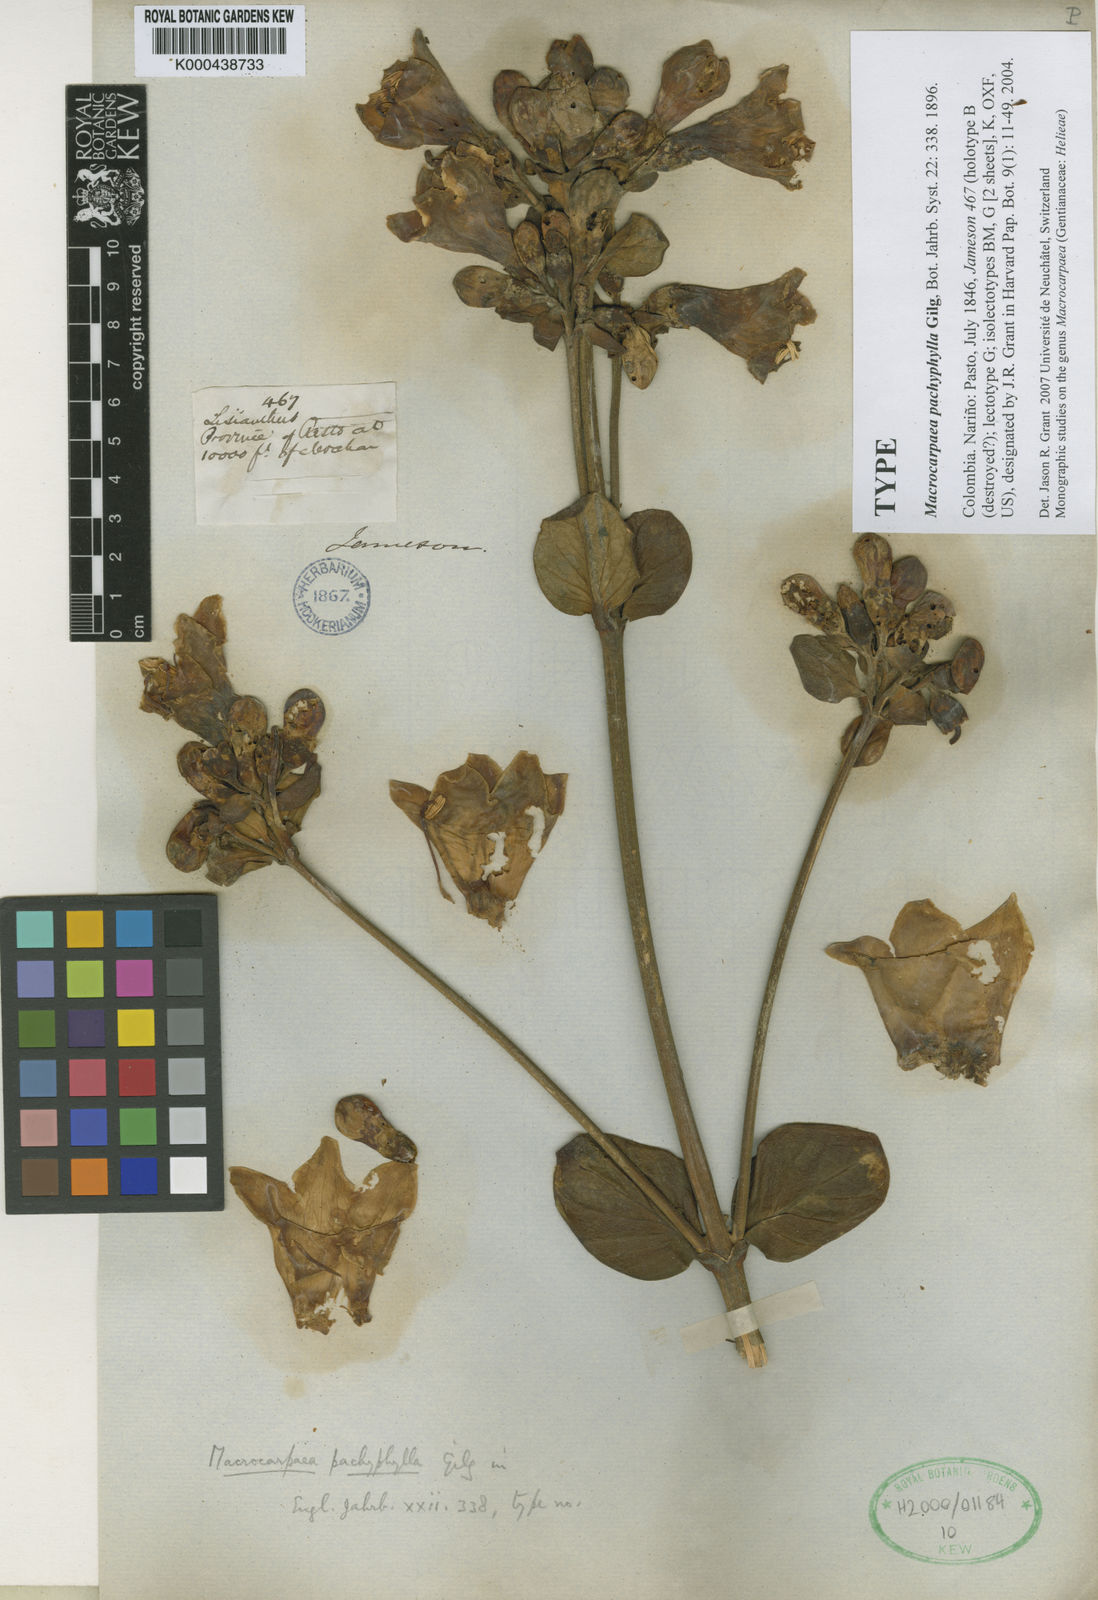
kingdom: Plantae
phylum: Tracheophyta
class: Magnoliopsida
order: Gentianales
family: Gentianaceae
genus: Macrocarpaea
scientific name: Macrocarpaea pachyphylla
